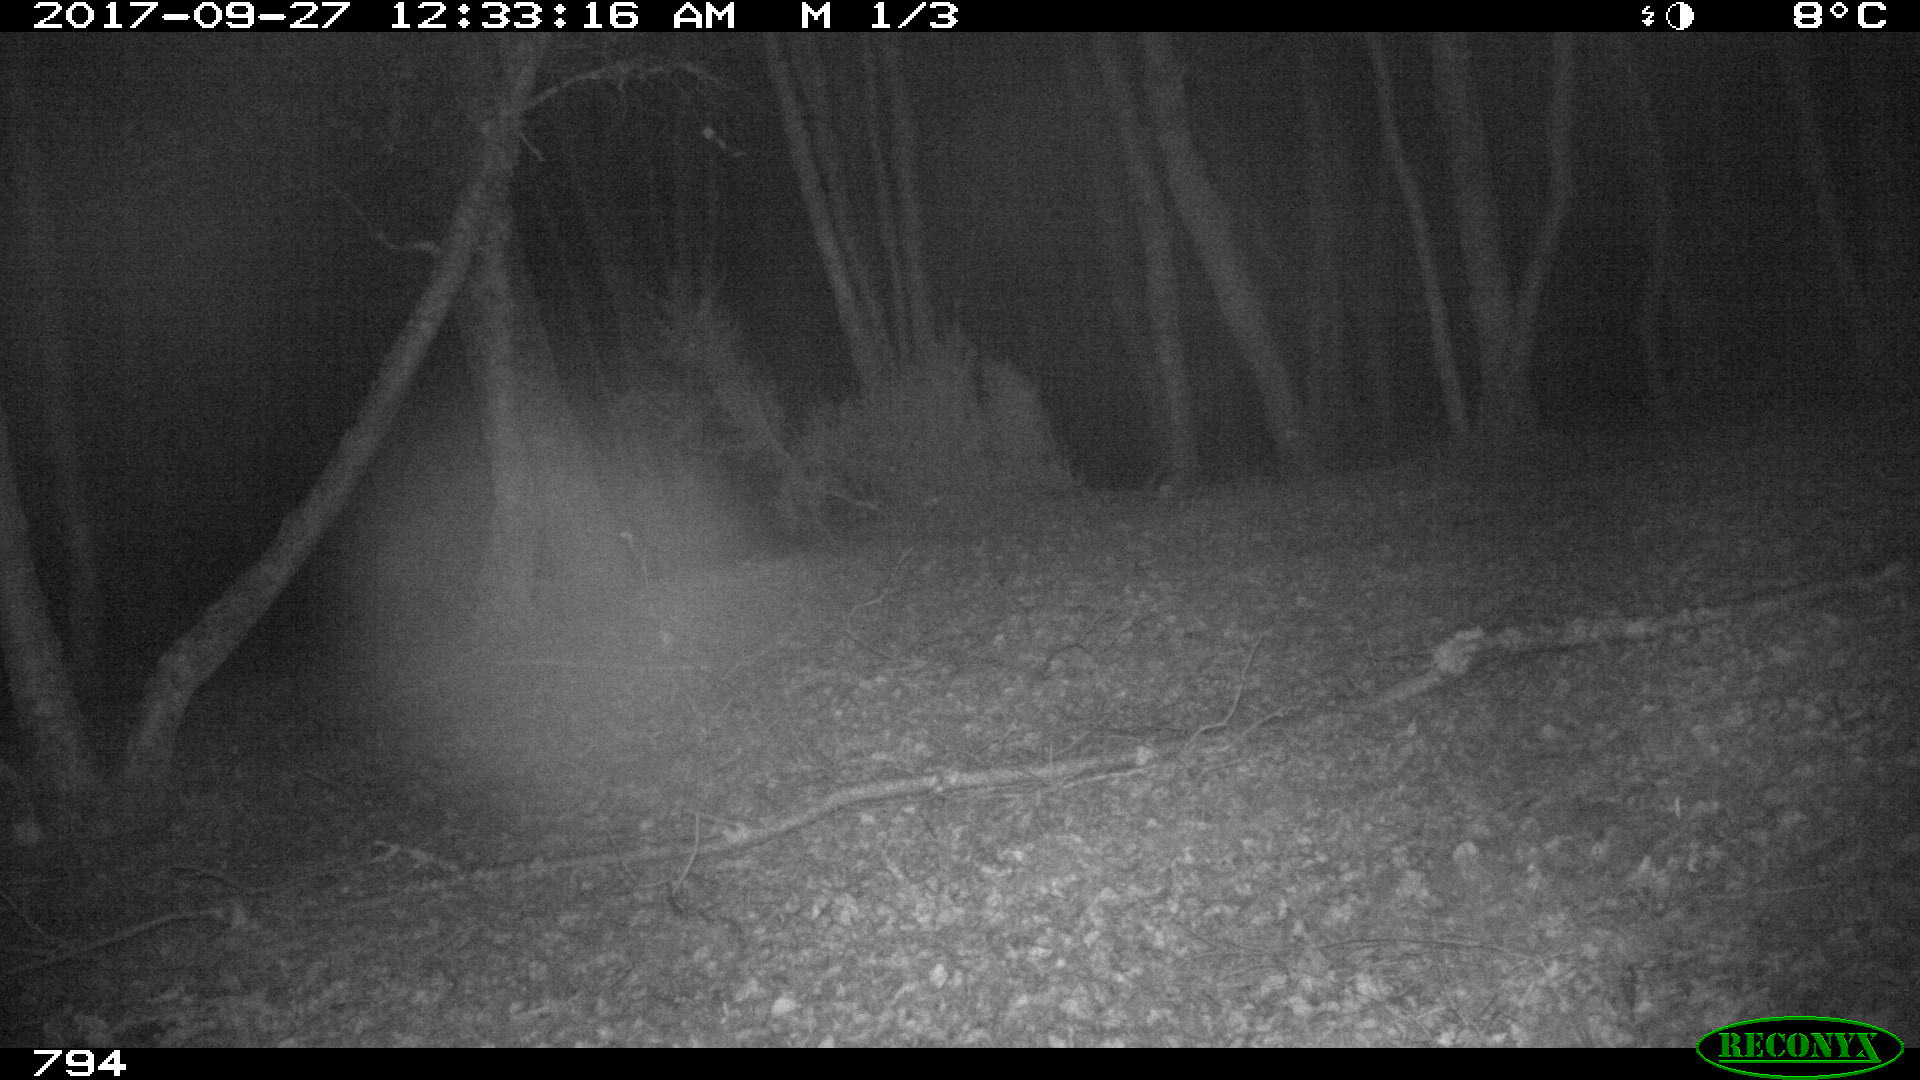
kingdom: Animalia
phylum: Chordata
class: Mammalia
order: Artiodactyla
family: Suidae
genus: Sus
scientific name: Sus scrofa
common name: Wild boar
